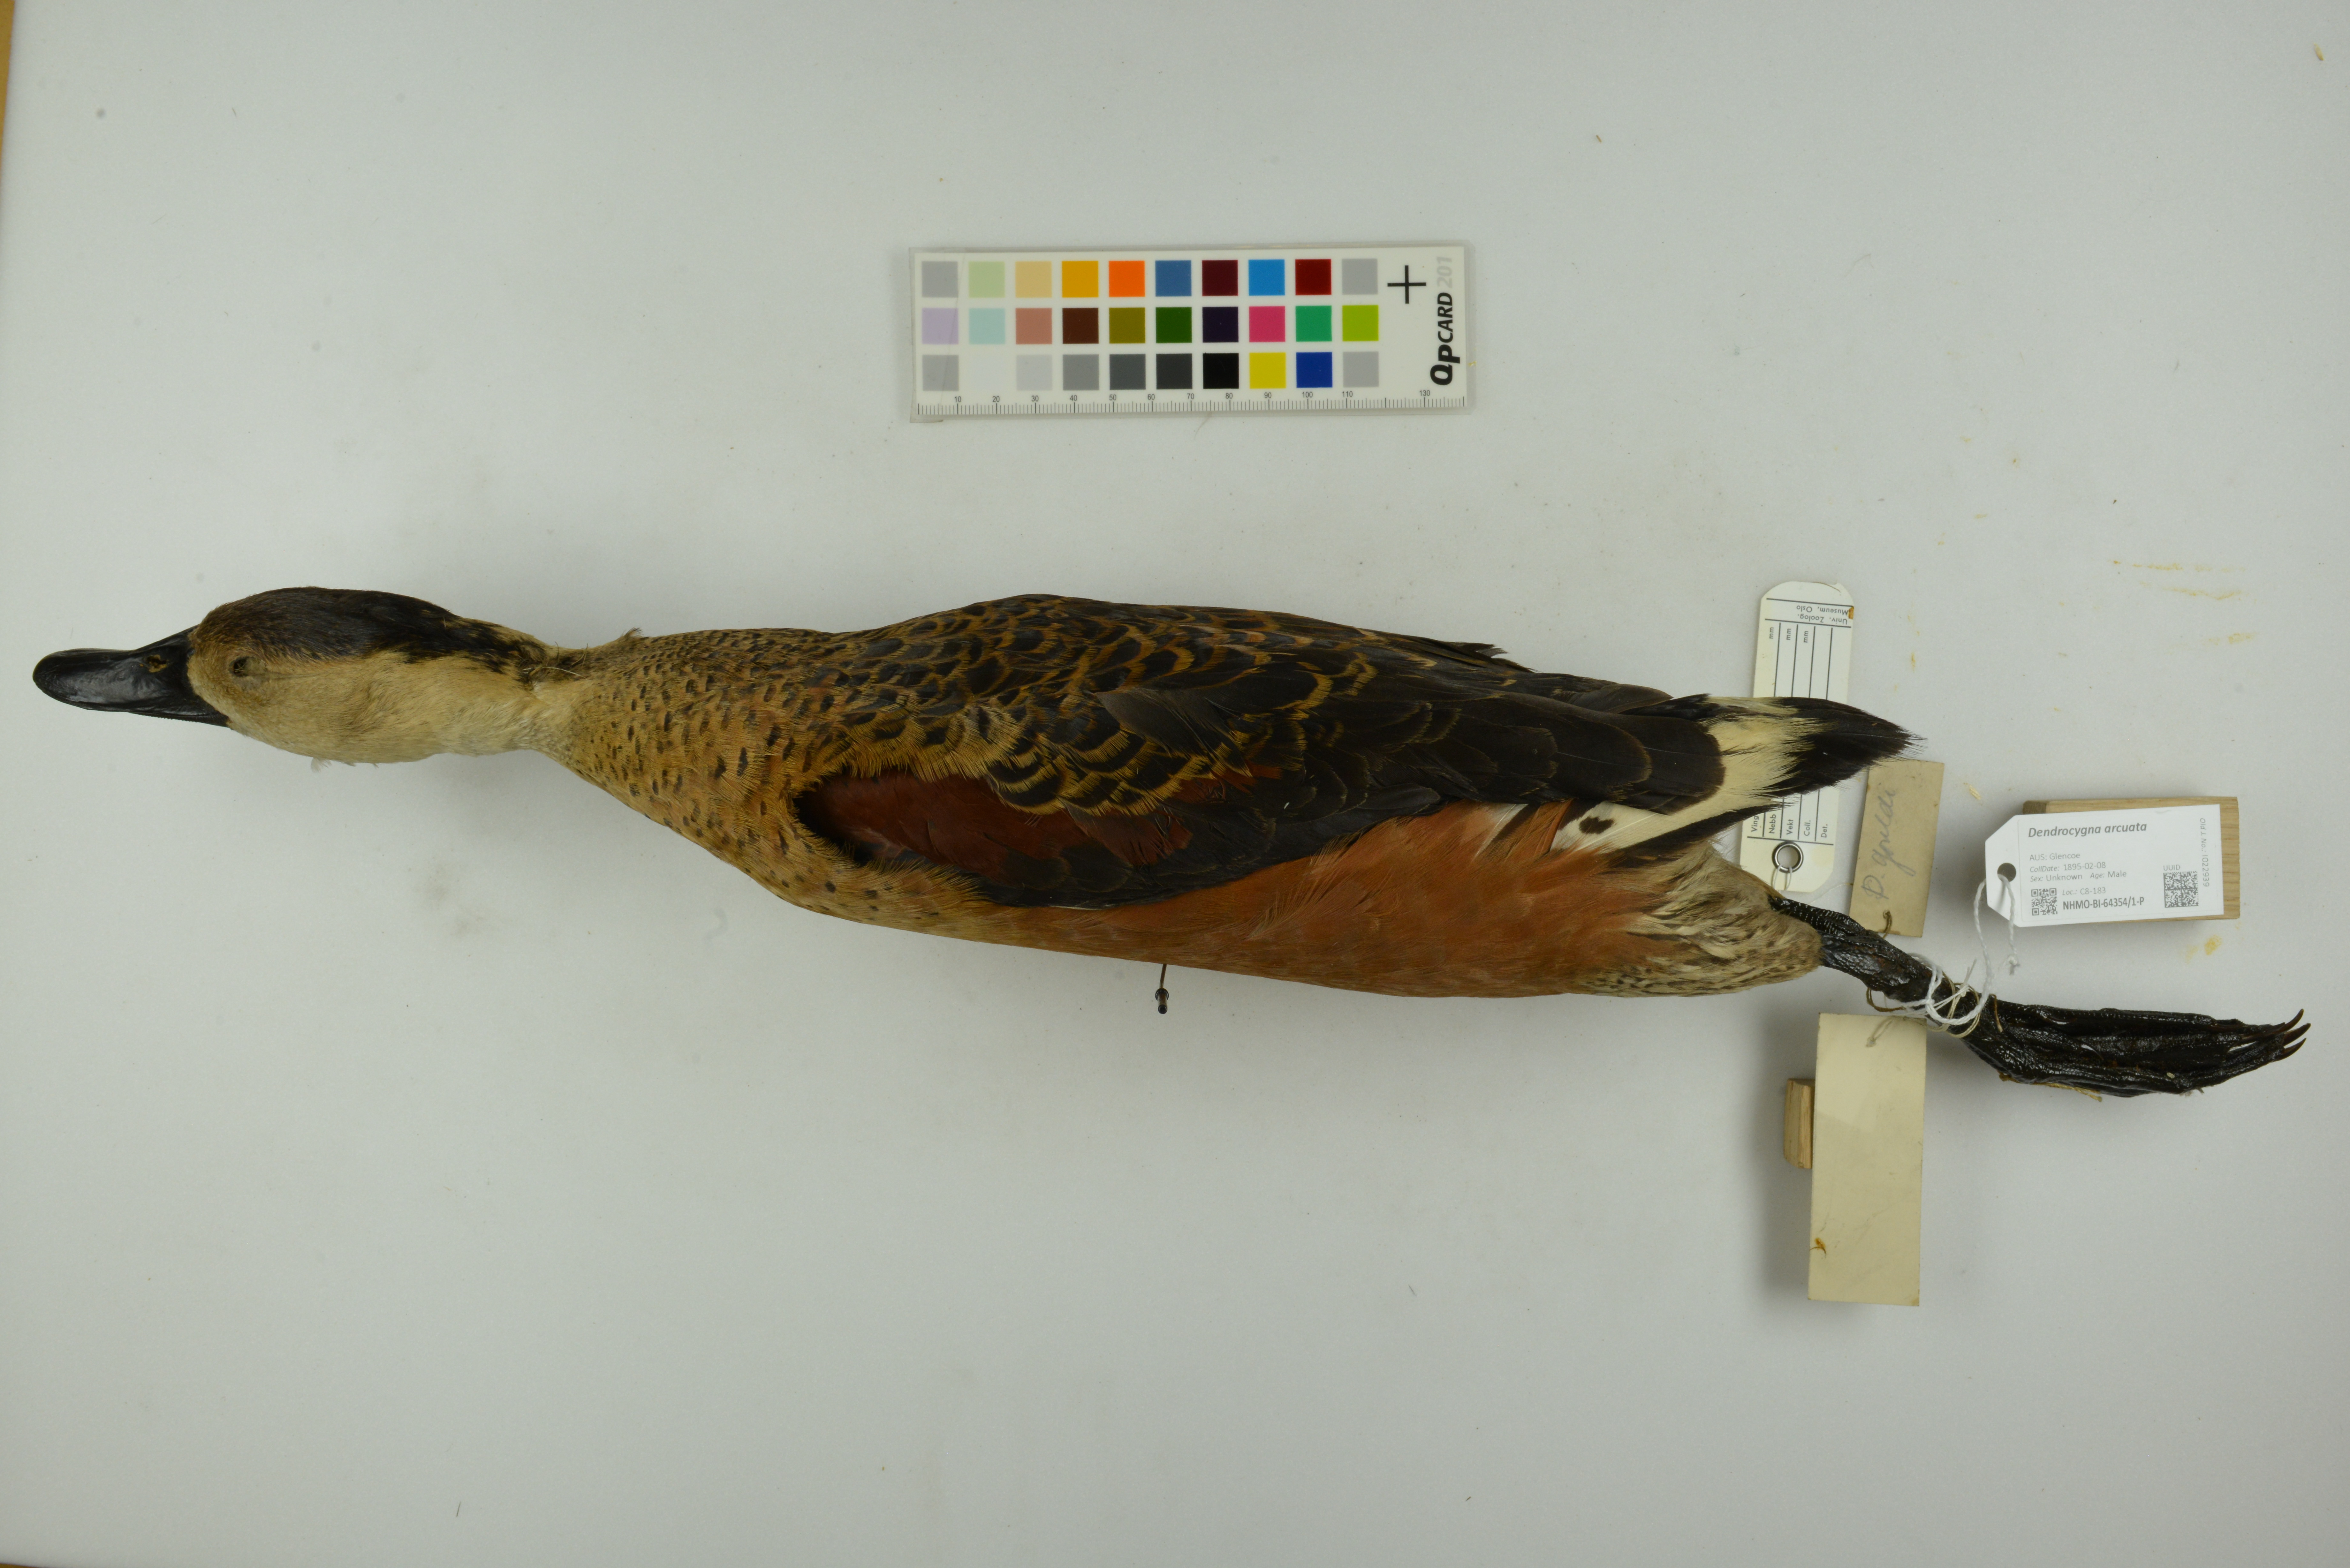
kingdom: Animalia
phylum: Chordata
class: Aves
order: Anseriformes
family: Anatidae
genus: Dendrocygna
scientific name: Dendrocygna arcuata
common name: Wandering whistling-duck
